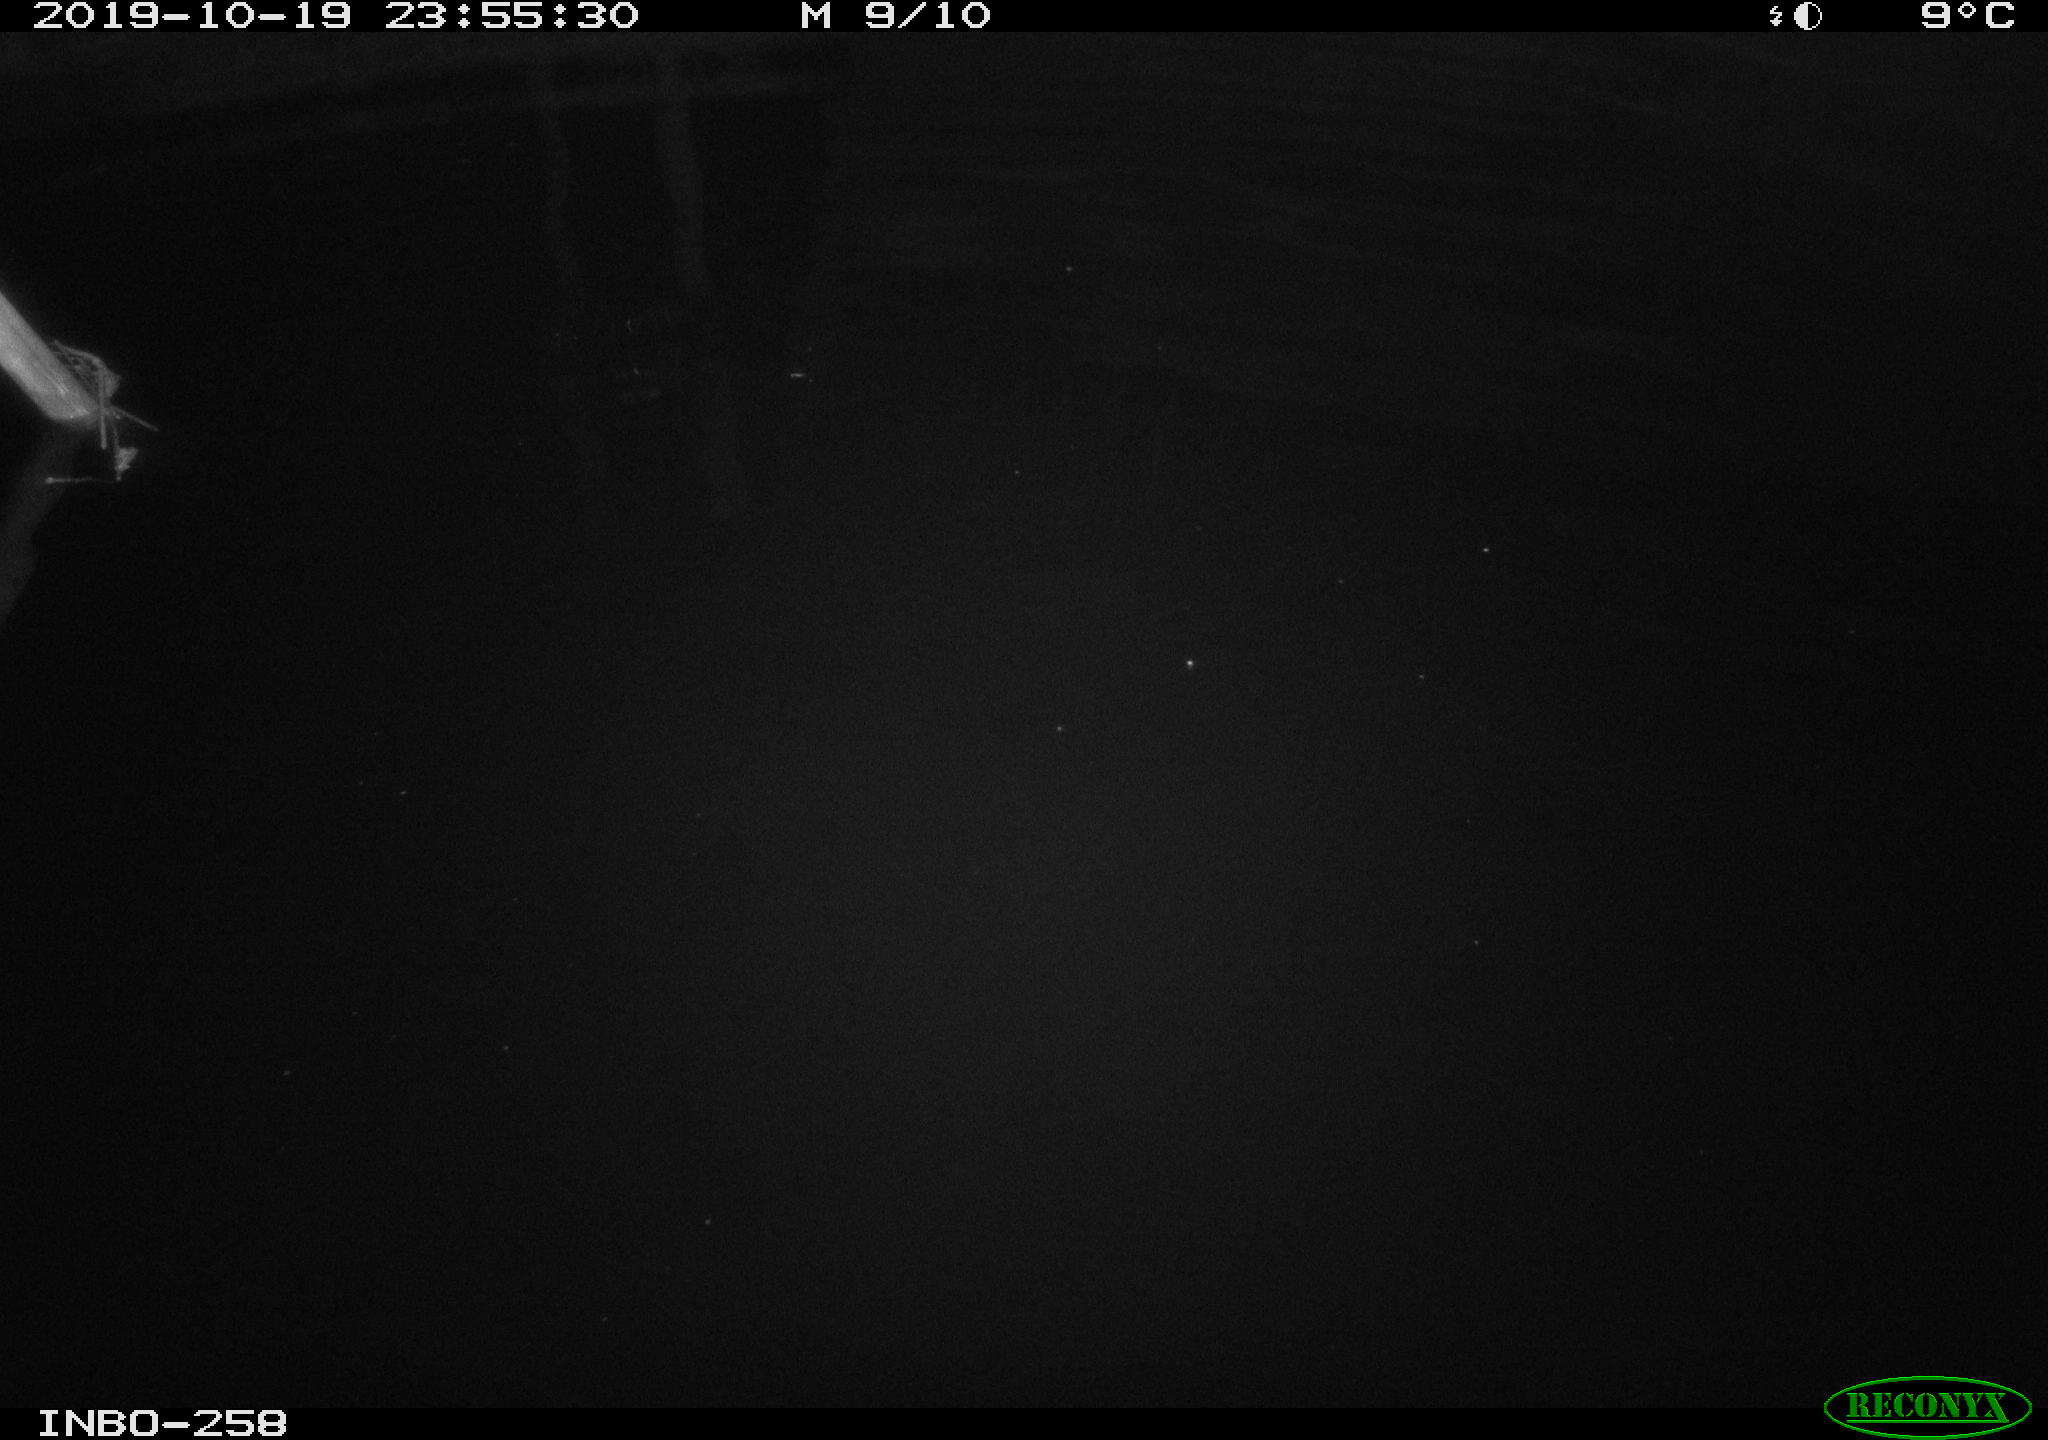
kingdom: Animalia
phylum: Chordata
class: Aves
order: Anseriformes
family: Anatidae
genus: Anas
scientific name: Anas platyrhynchos
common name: Mallard
